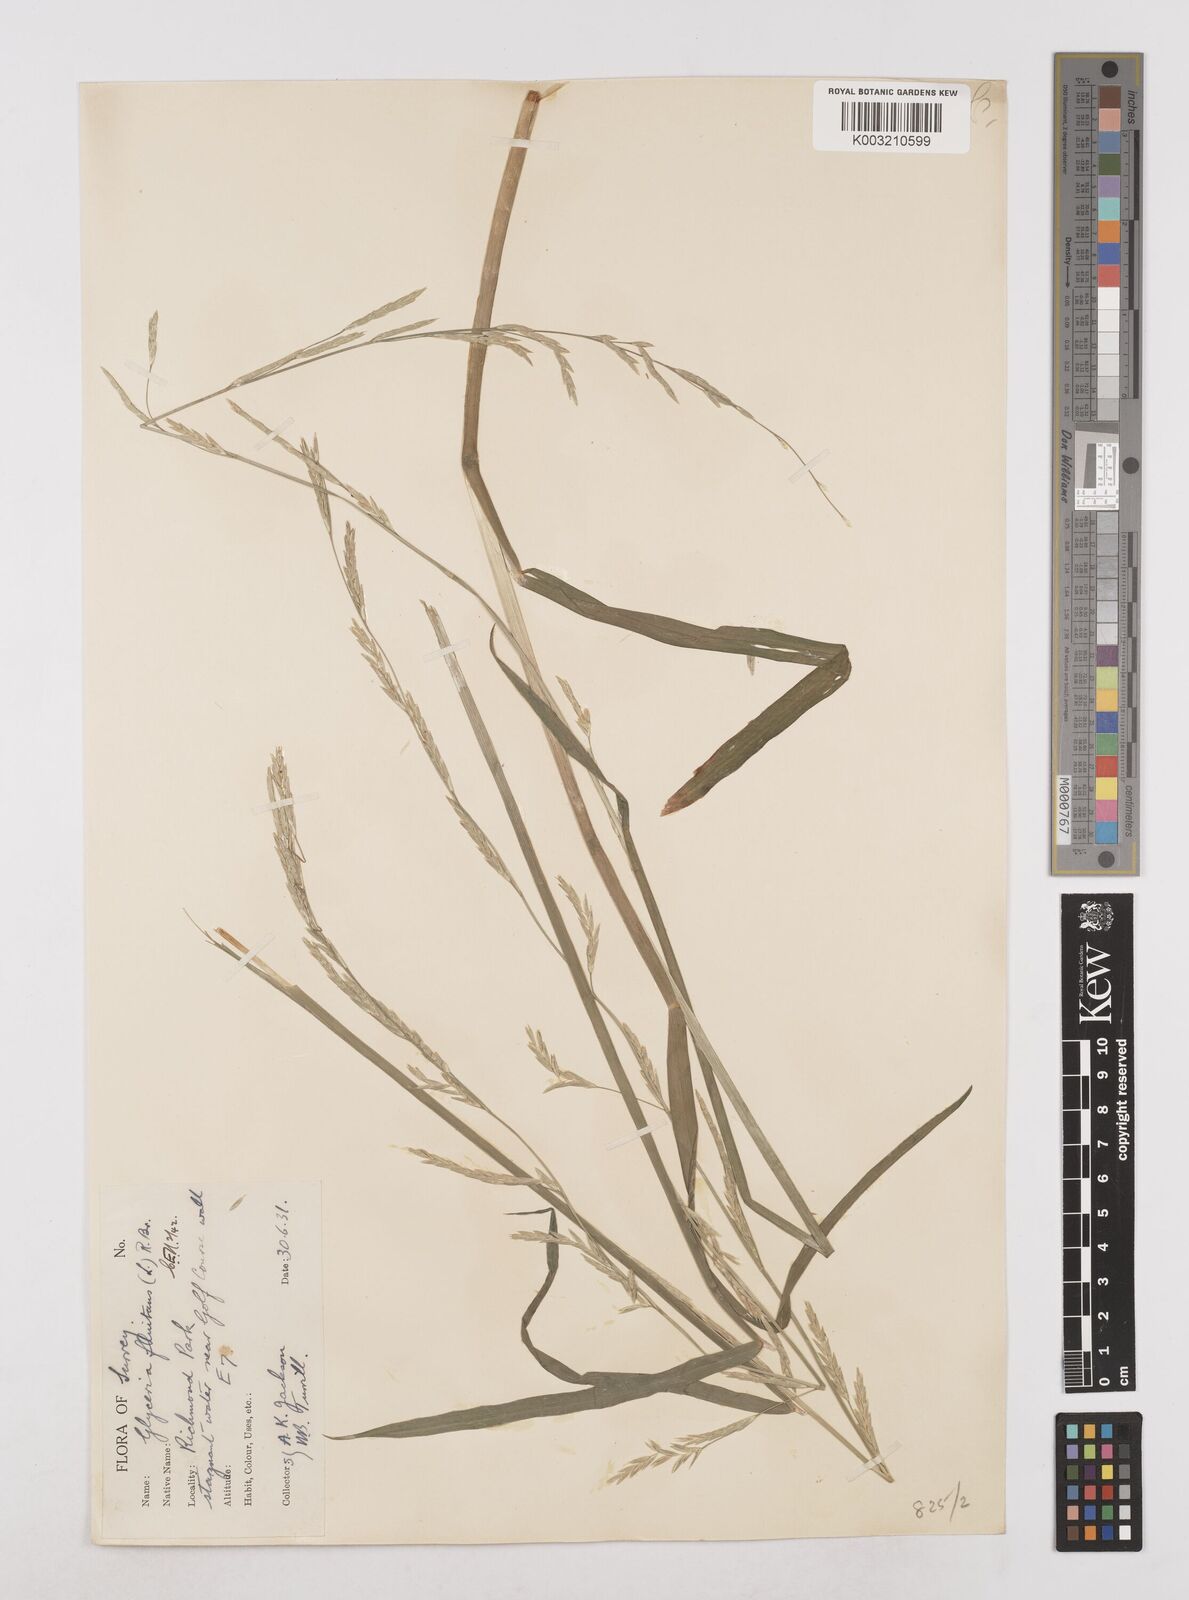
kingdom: Plantae
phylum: Tracheophyta
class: Liliopsida
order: Poales
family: Poaceae
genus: Glyceria
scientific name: Glyceria fluitans
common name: Floating sweet-grass
